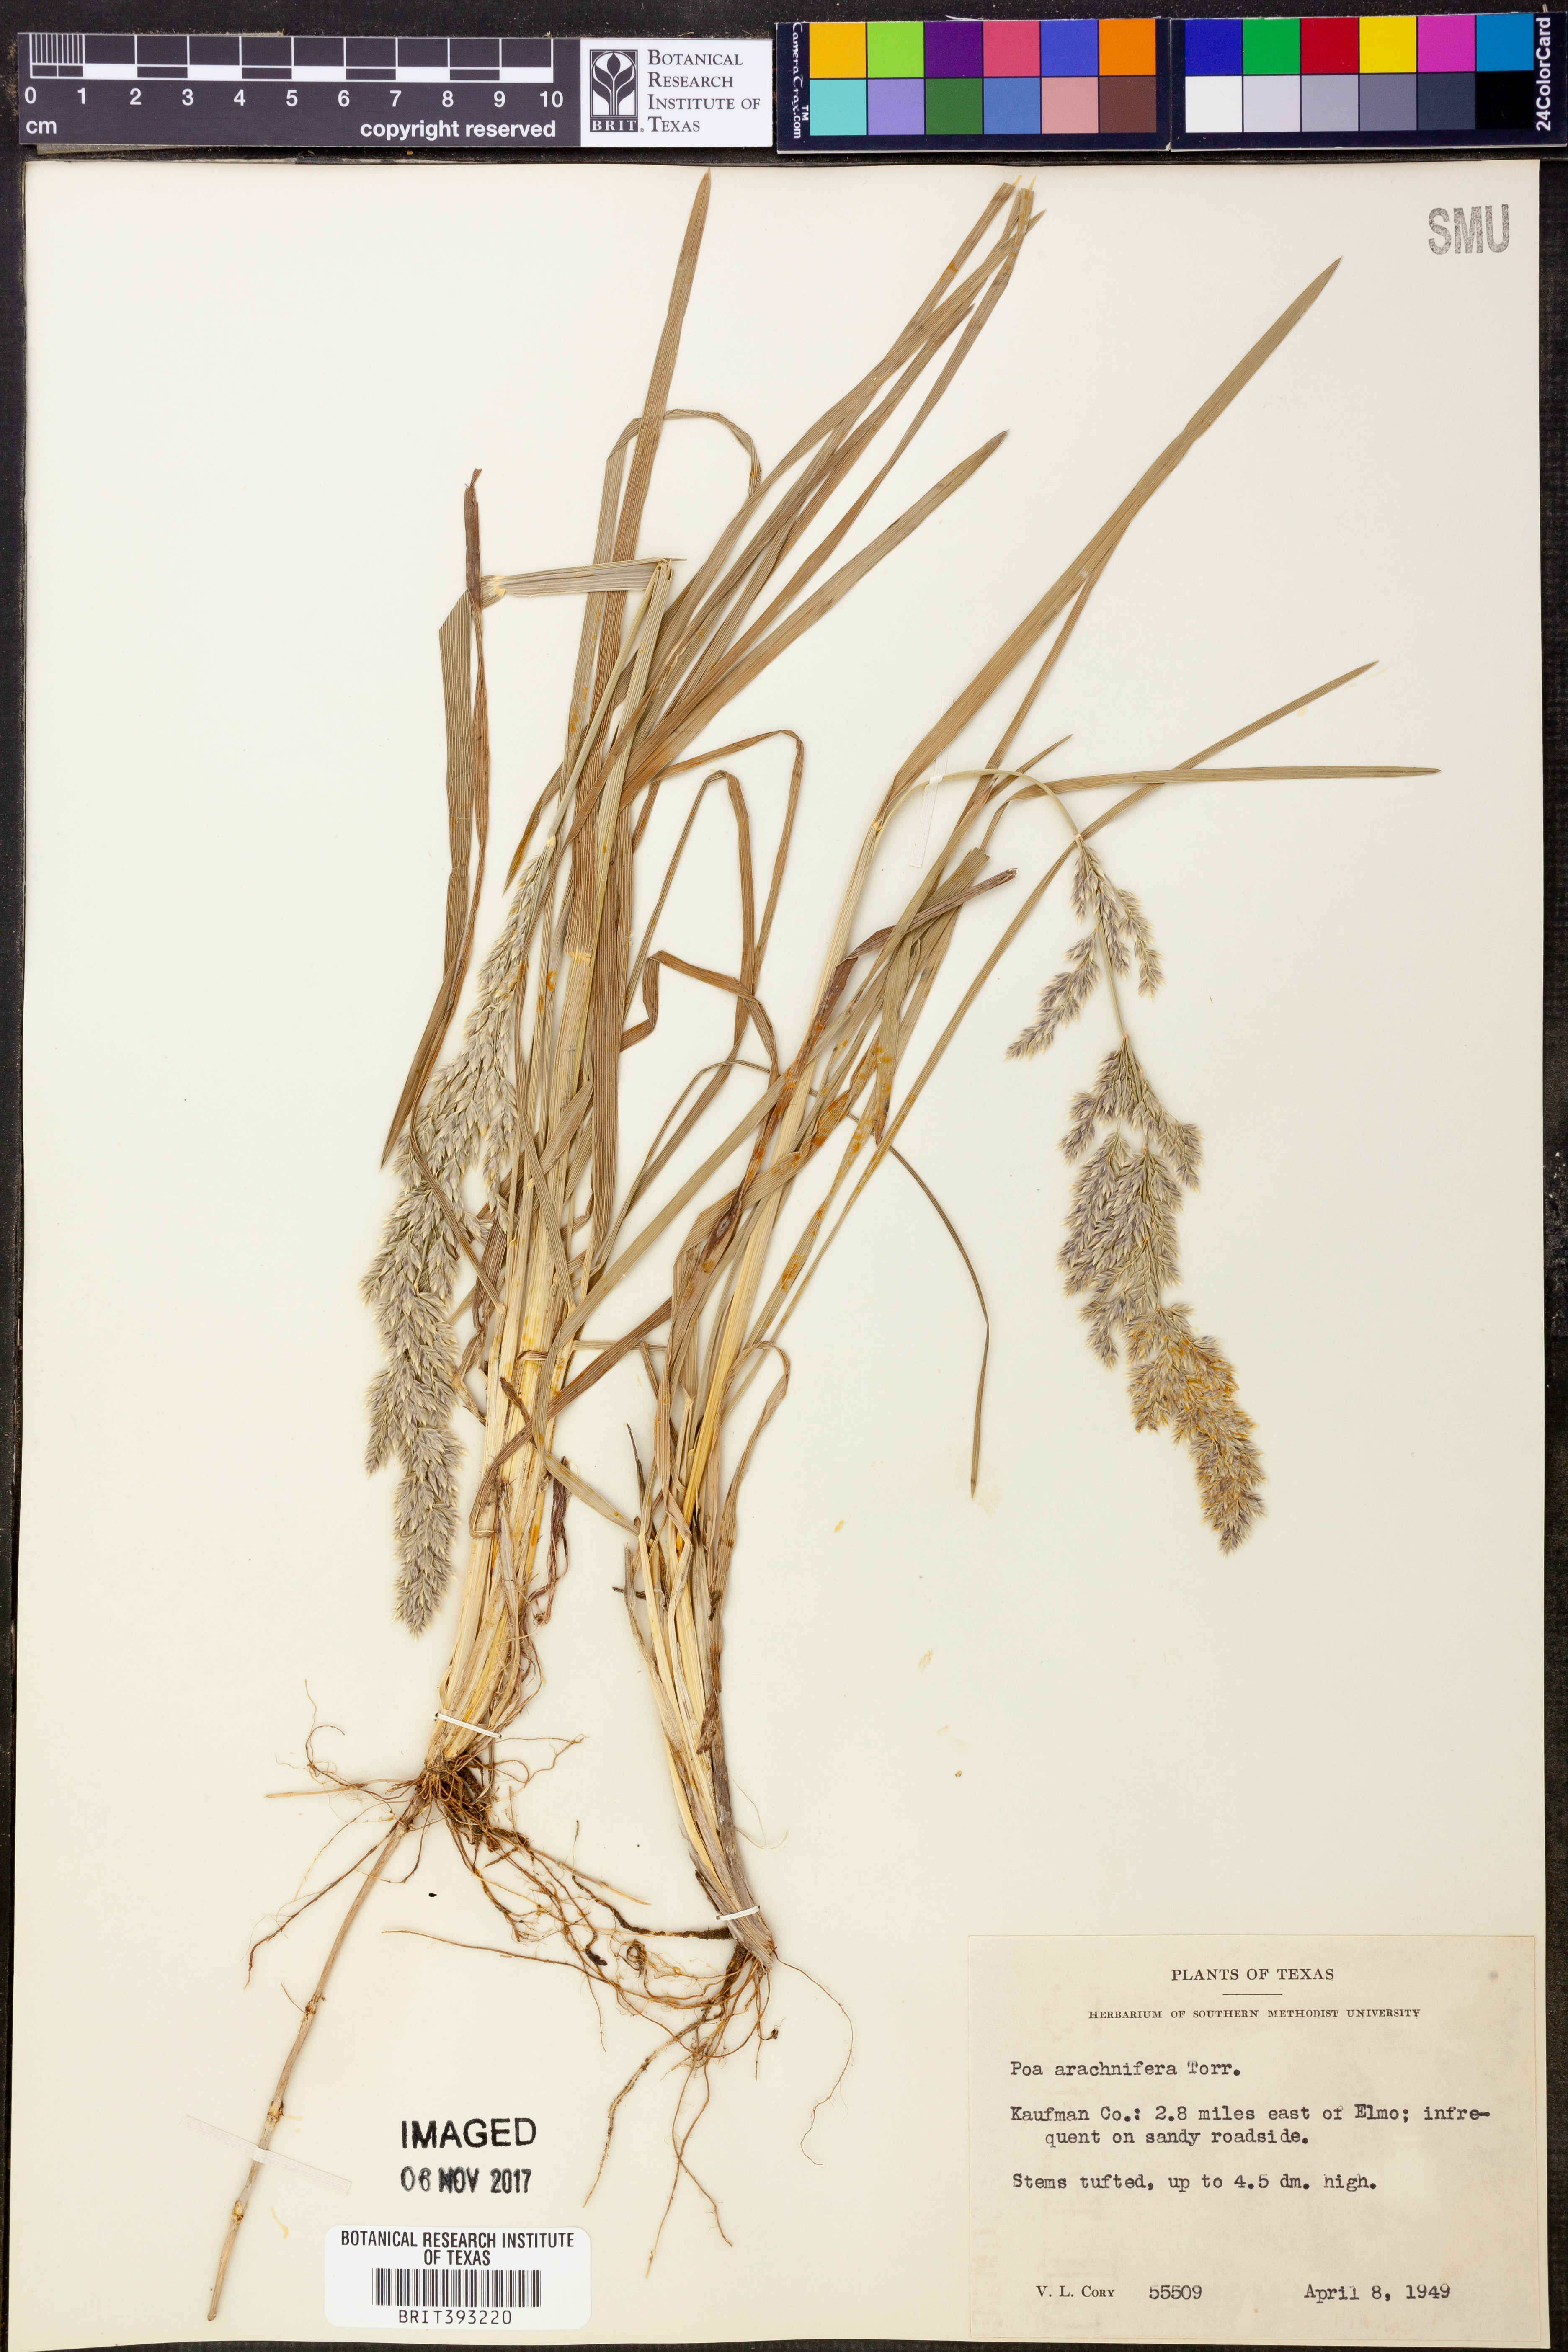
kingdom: Plantae
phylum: Tracheophyta
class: Liliopsida
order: Poales
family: Poaceae
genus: Poa
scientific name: Poa arachnifera
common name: Texas bluegrass
